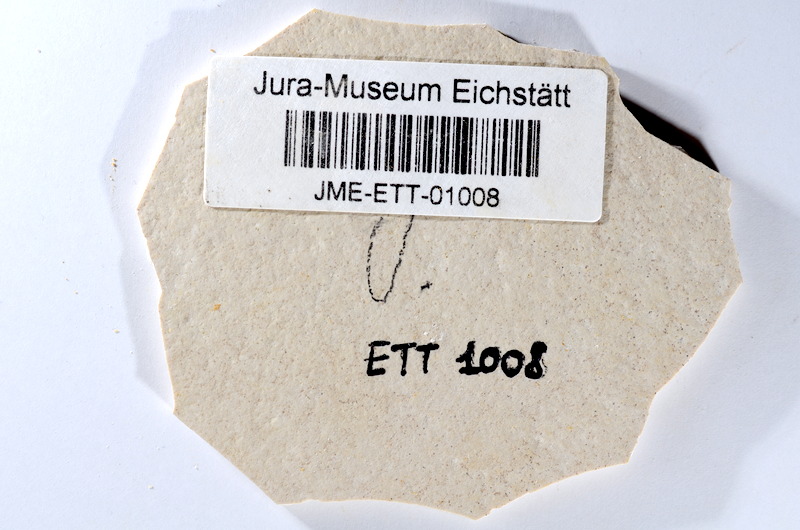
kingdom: Animalia
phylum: Chordata
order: Salmoniformes
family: Orthogonikleithridae
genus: Orthogonikleithrus
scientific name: Orthogonikleithrus hoelli
